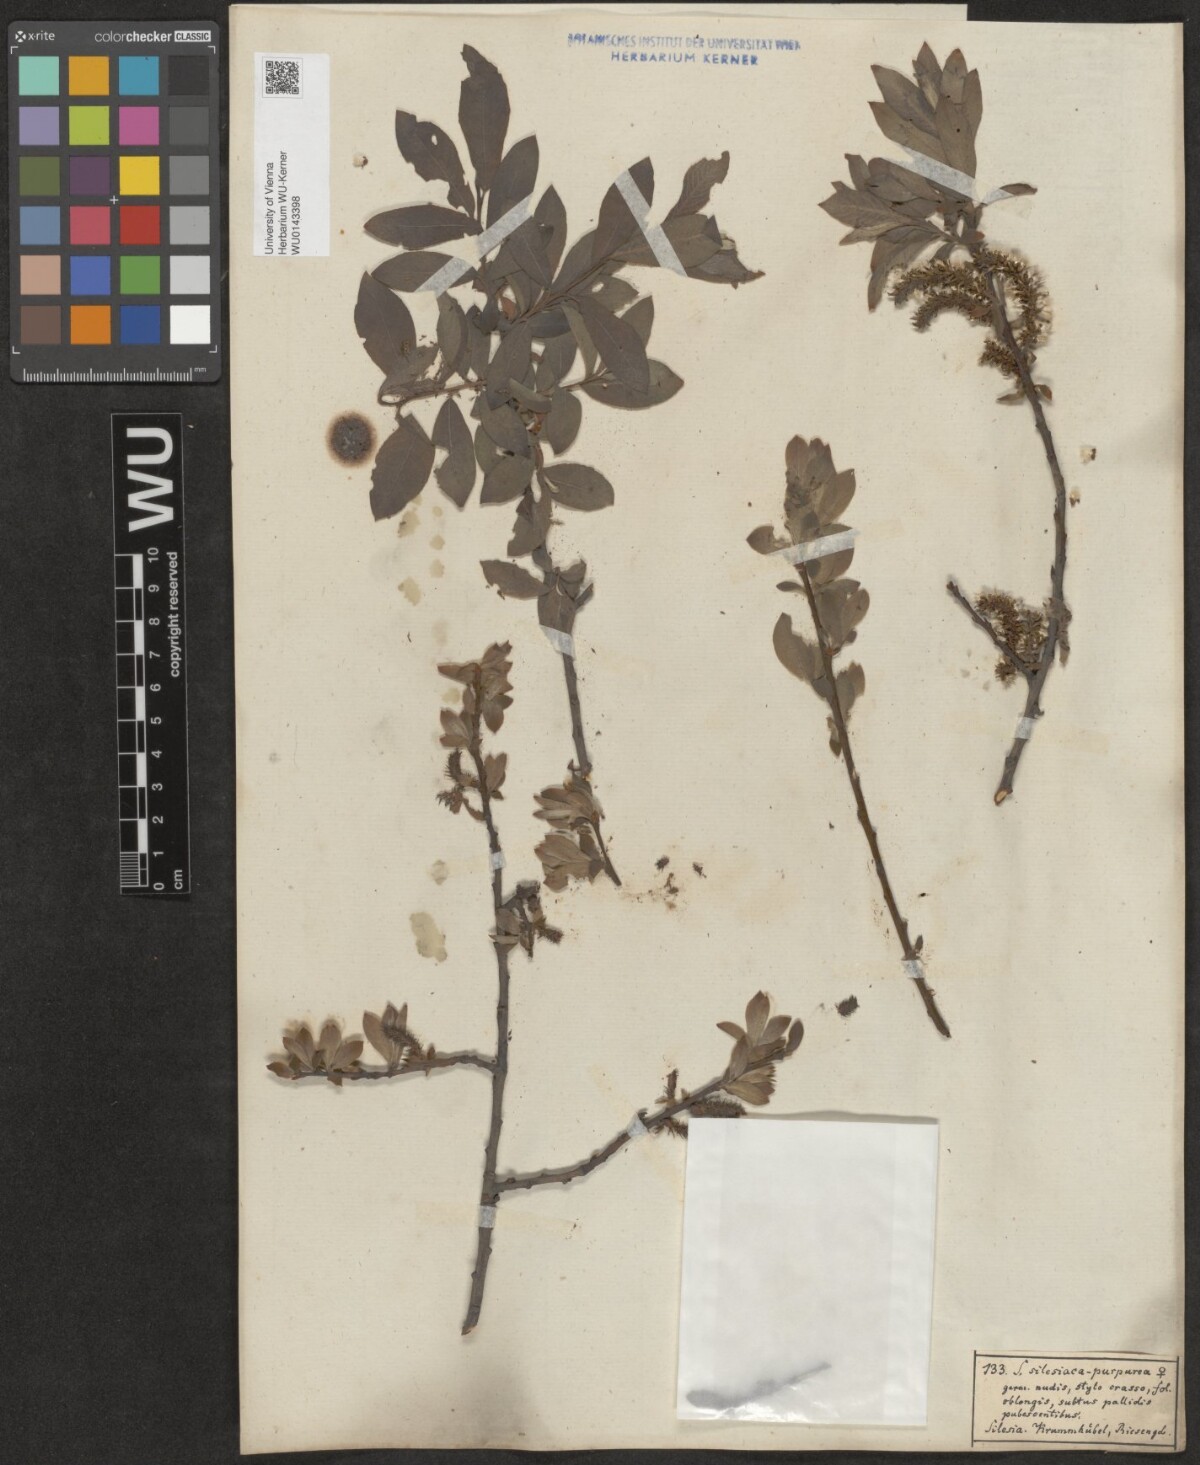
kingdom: Plantae
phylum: Tracheophyta
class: Magnoliopsida
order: Malpighiales
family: Salicaceae
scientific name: Salicaceae
